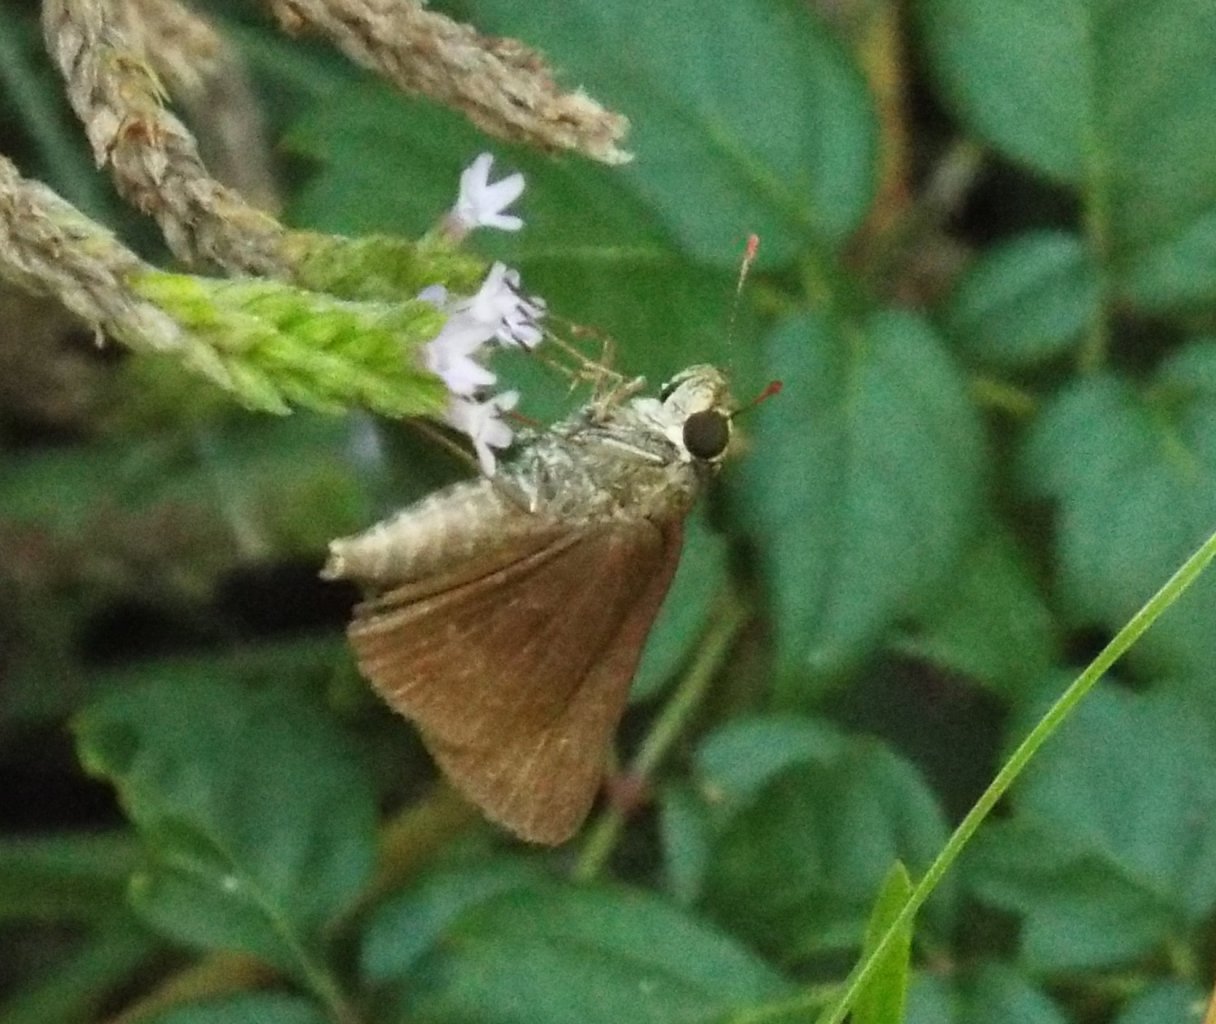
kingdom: Animalia
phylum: Arthropoda
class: Insecta
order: Lepidoptera
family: Hesperiidae
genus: Euphyes
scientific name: Euphyes vestris
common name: Dun Skipper
